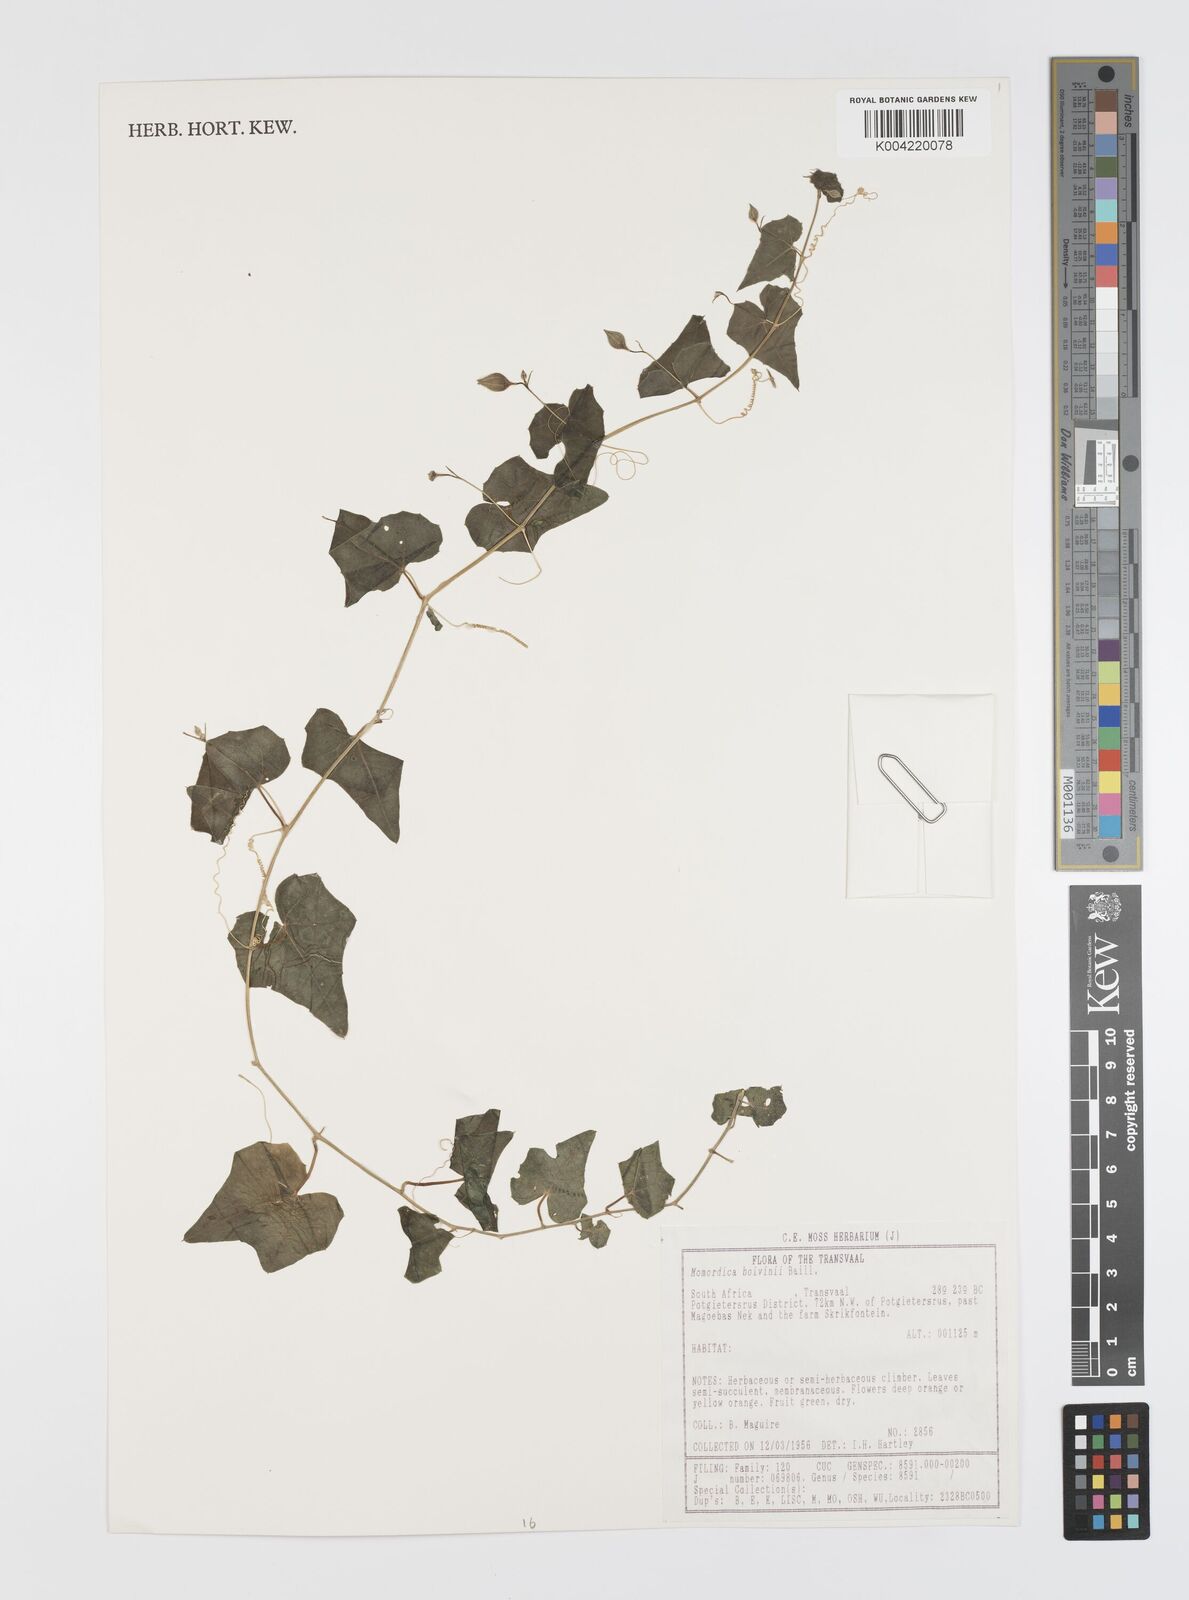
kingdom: Plantae
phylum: Tracheophyta
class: Magnoliopsida
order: Cucurbitales
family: Cucurbitaceae
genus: Momordica
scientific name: Momordica boivinii
